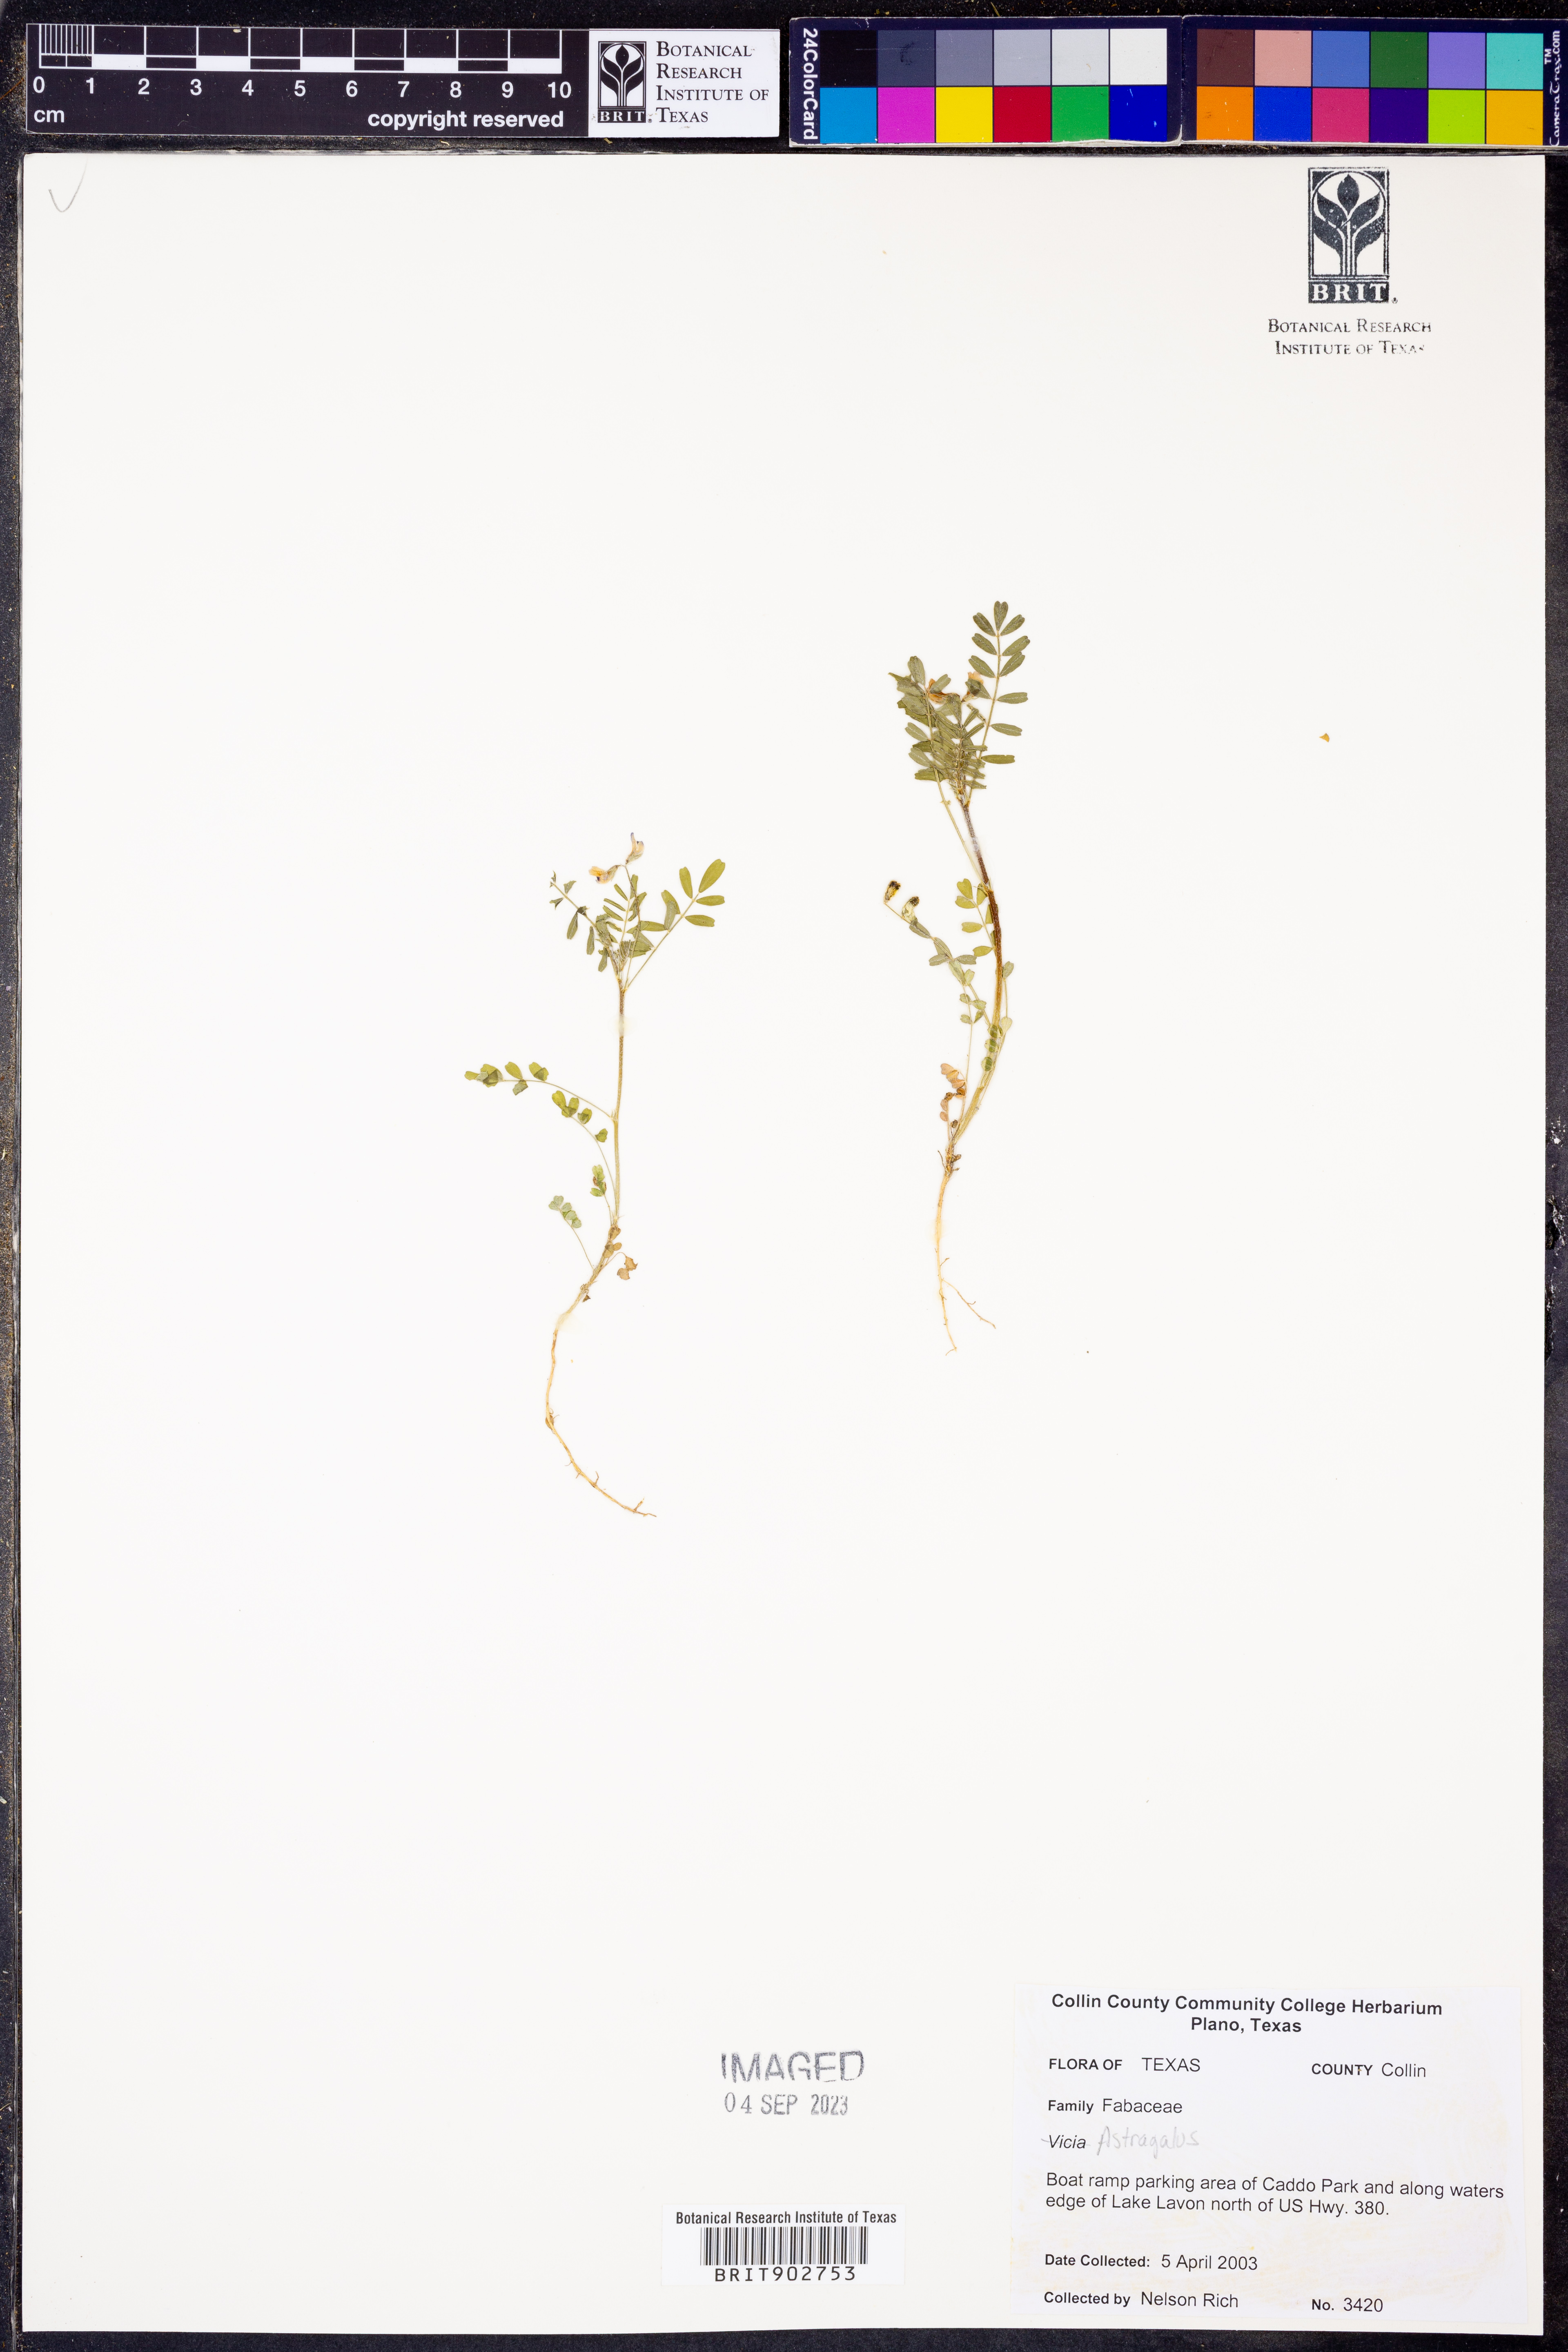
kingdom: Plantae
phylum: Tracheophyta
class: Magnoliopsida
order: Fabales
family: Fabaceae
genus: Astragalus
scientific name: Astragalus
